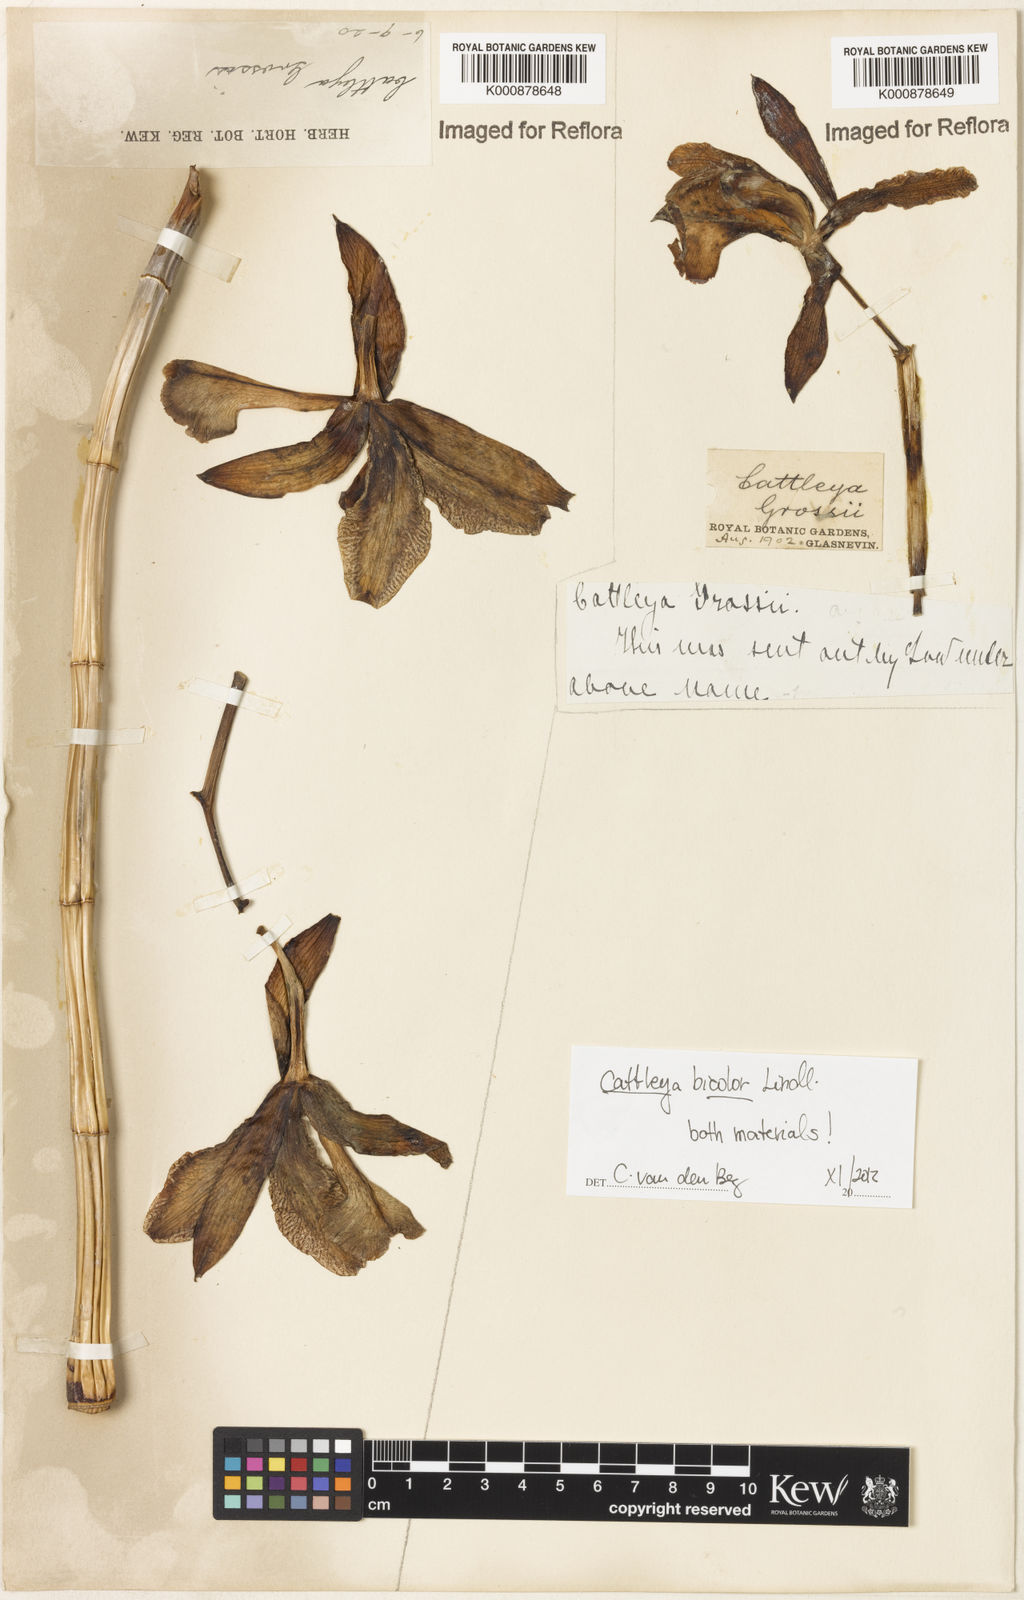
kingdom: Plantae
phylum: Tracheophyta
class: Liliopsida
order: Asparagales
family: Orchidaceae
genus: Cattleya
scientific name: Cattleya bicolor
